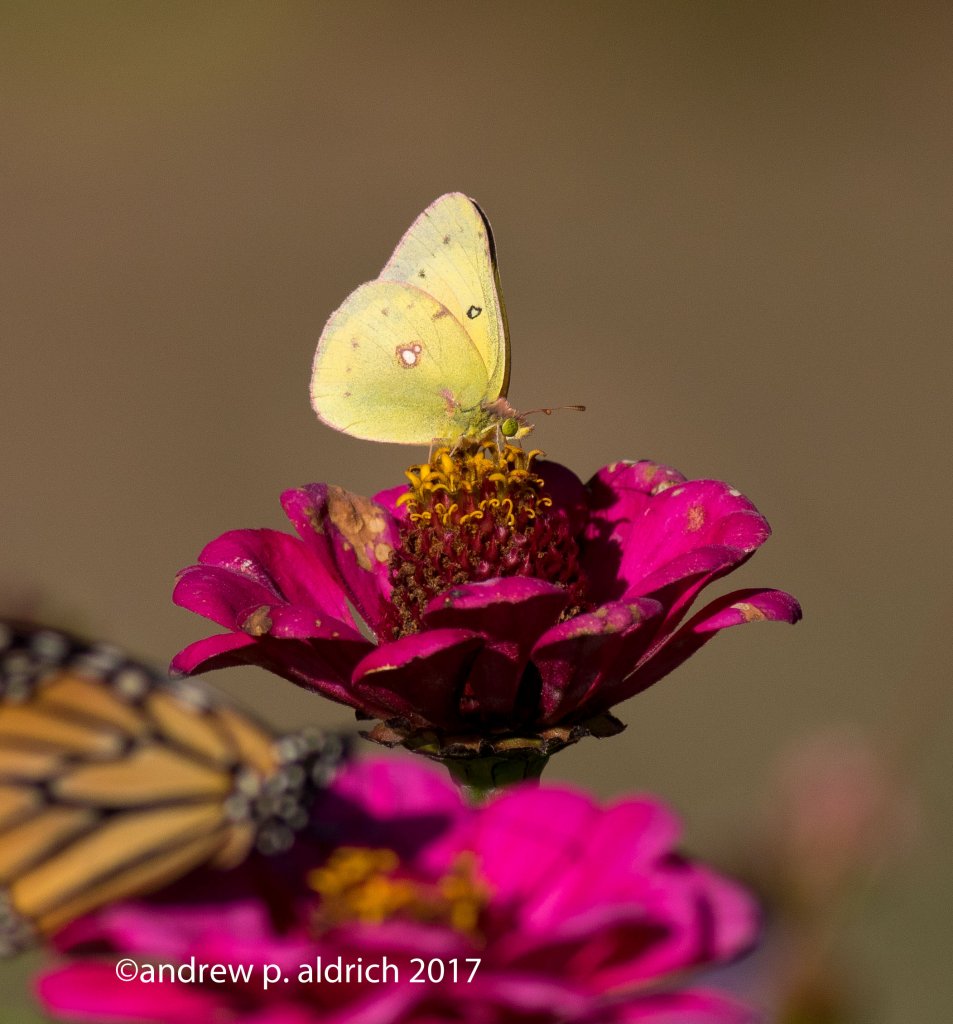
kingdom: Animalia
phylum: Arthropoda
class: Insecta
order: Lepidoptera
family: Pieridae
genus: Colias
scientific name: Colias eurytheme
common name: Orange Sulphur
